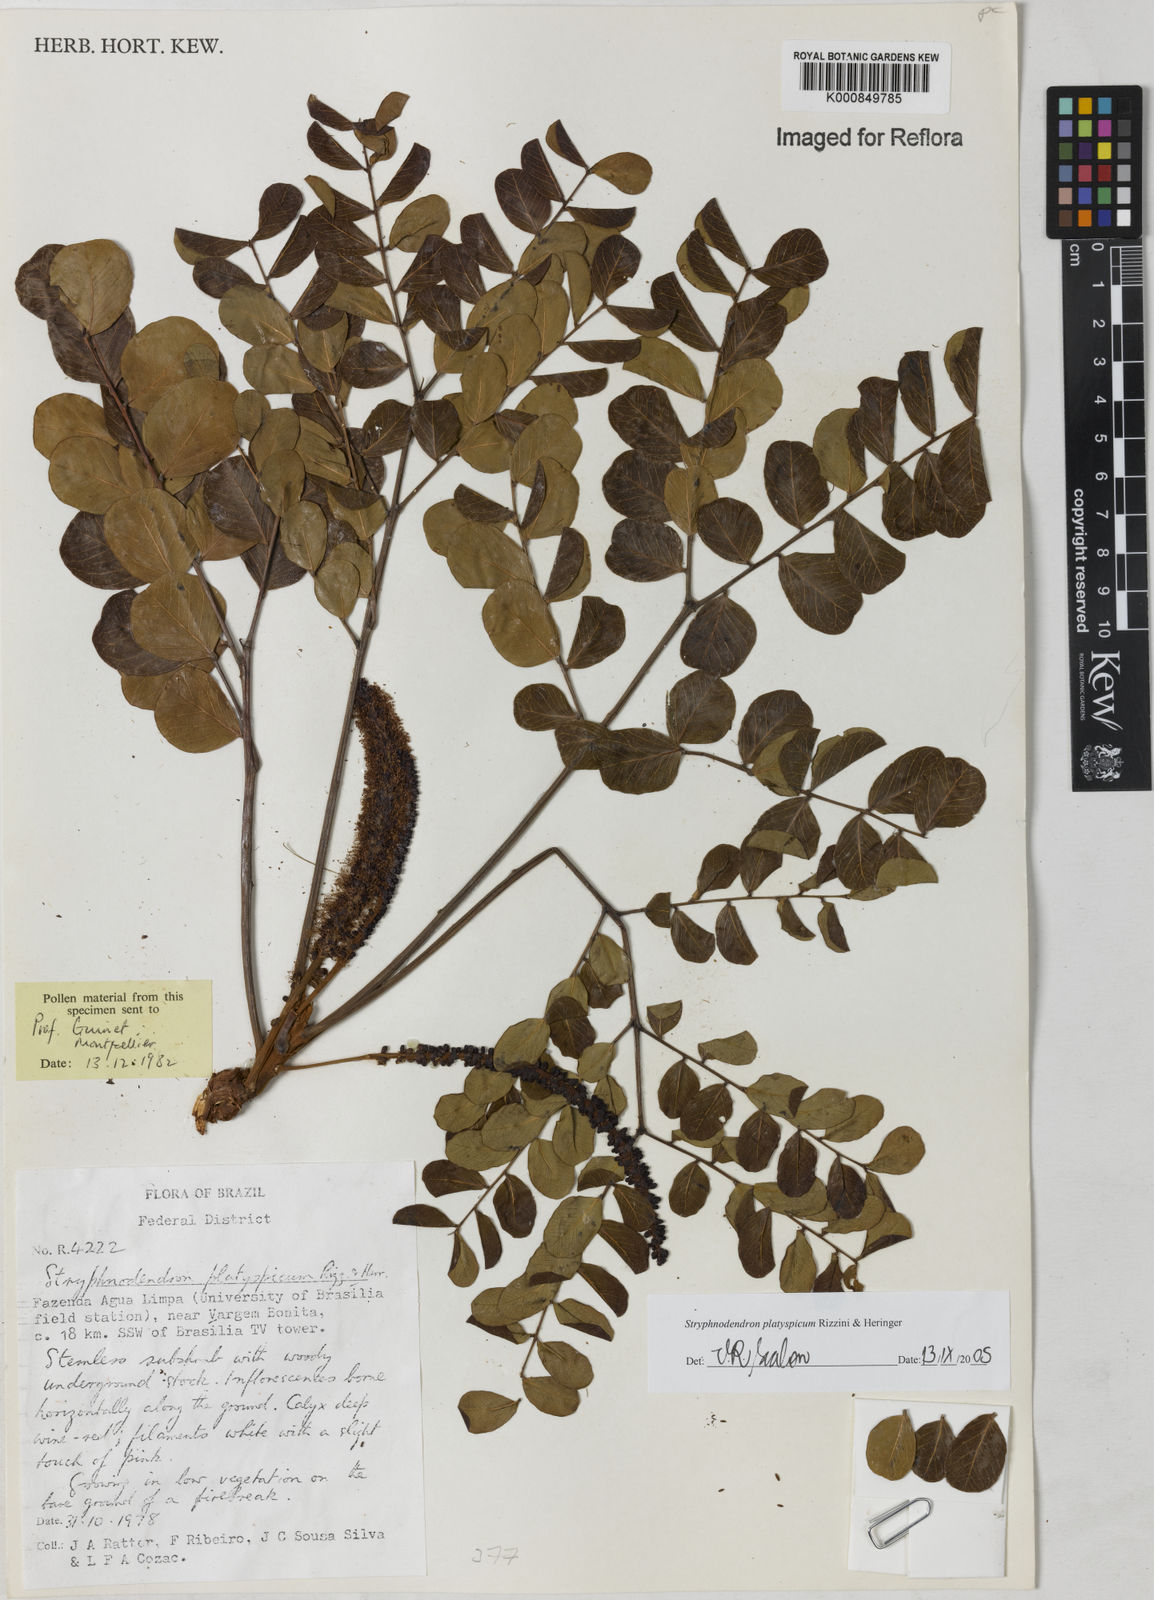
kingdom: Plantae
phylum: Tracheophyta
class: Magnoliopsida
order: Fabales
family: Fabaceae
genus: Stryphnodendron
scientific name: Stryphnodendron
